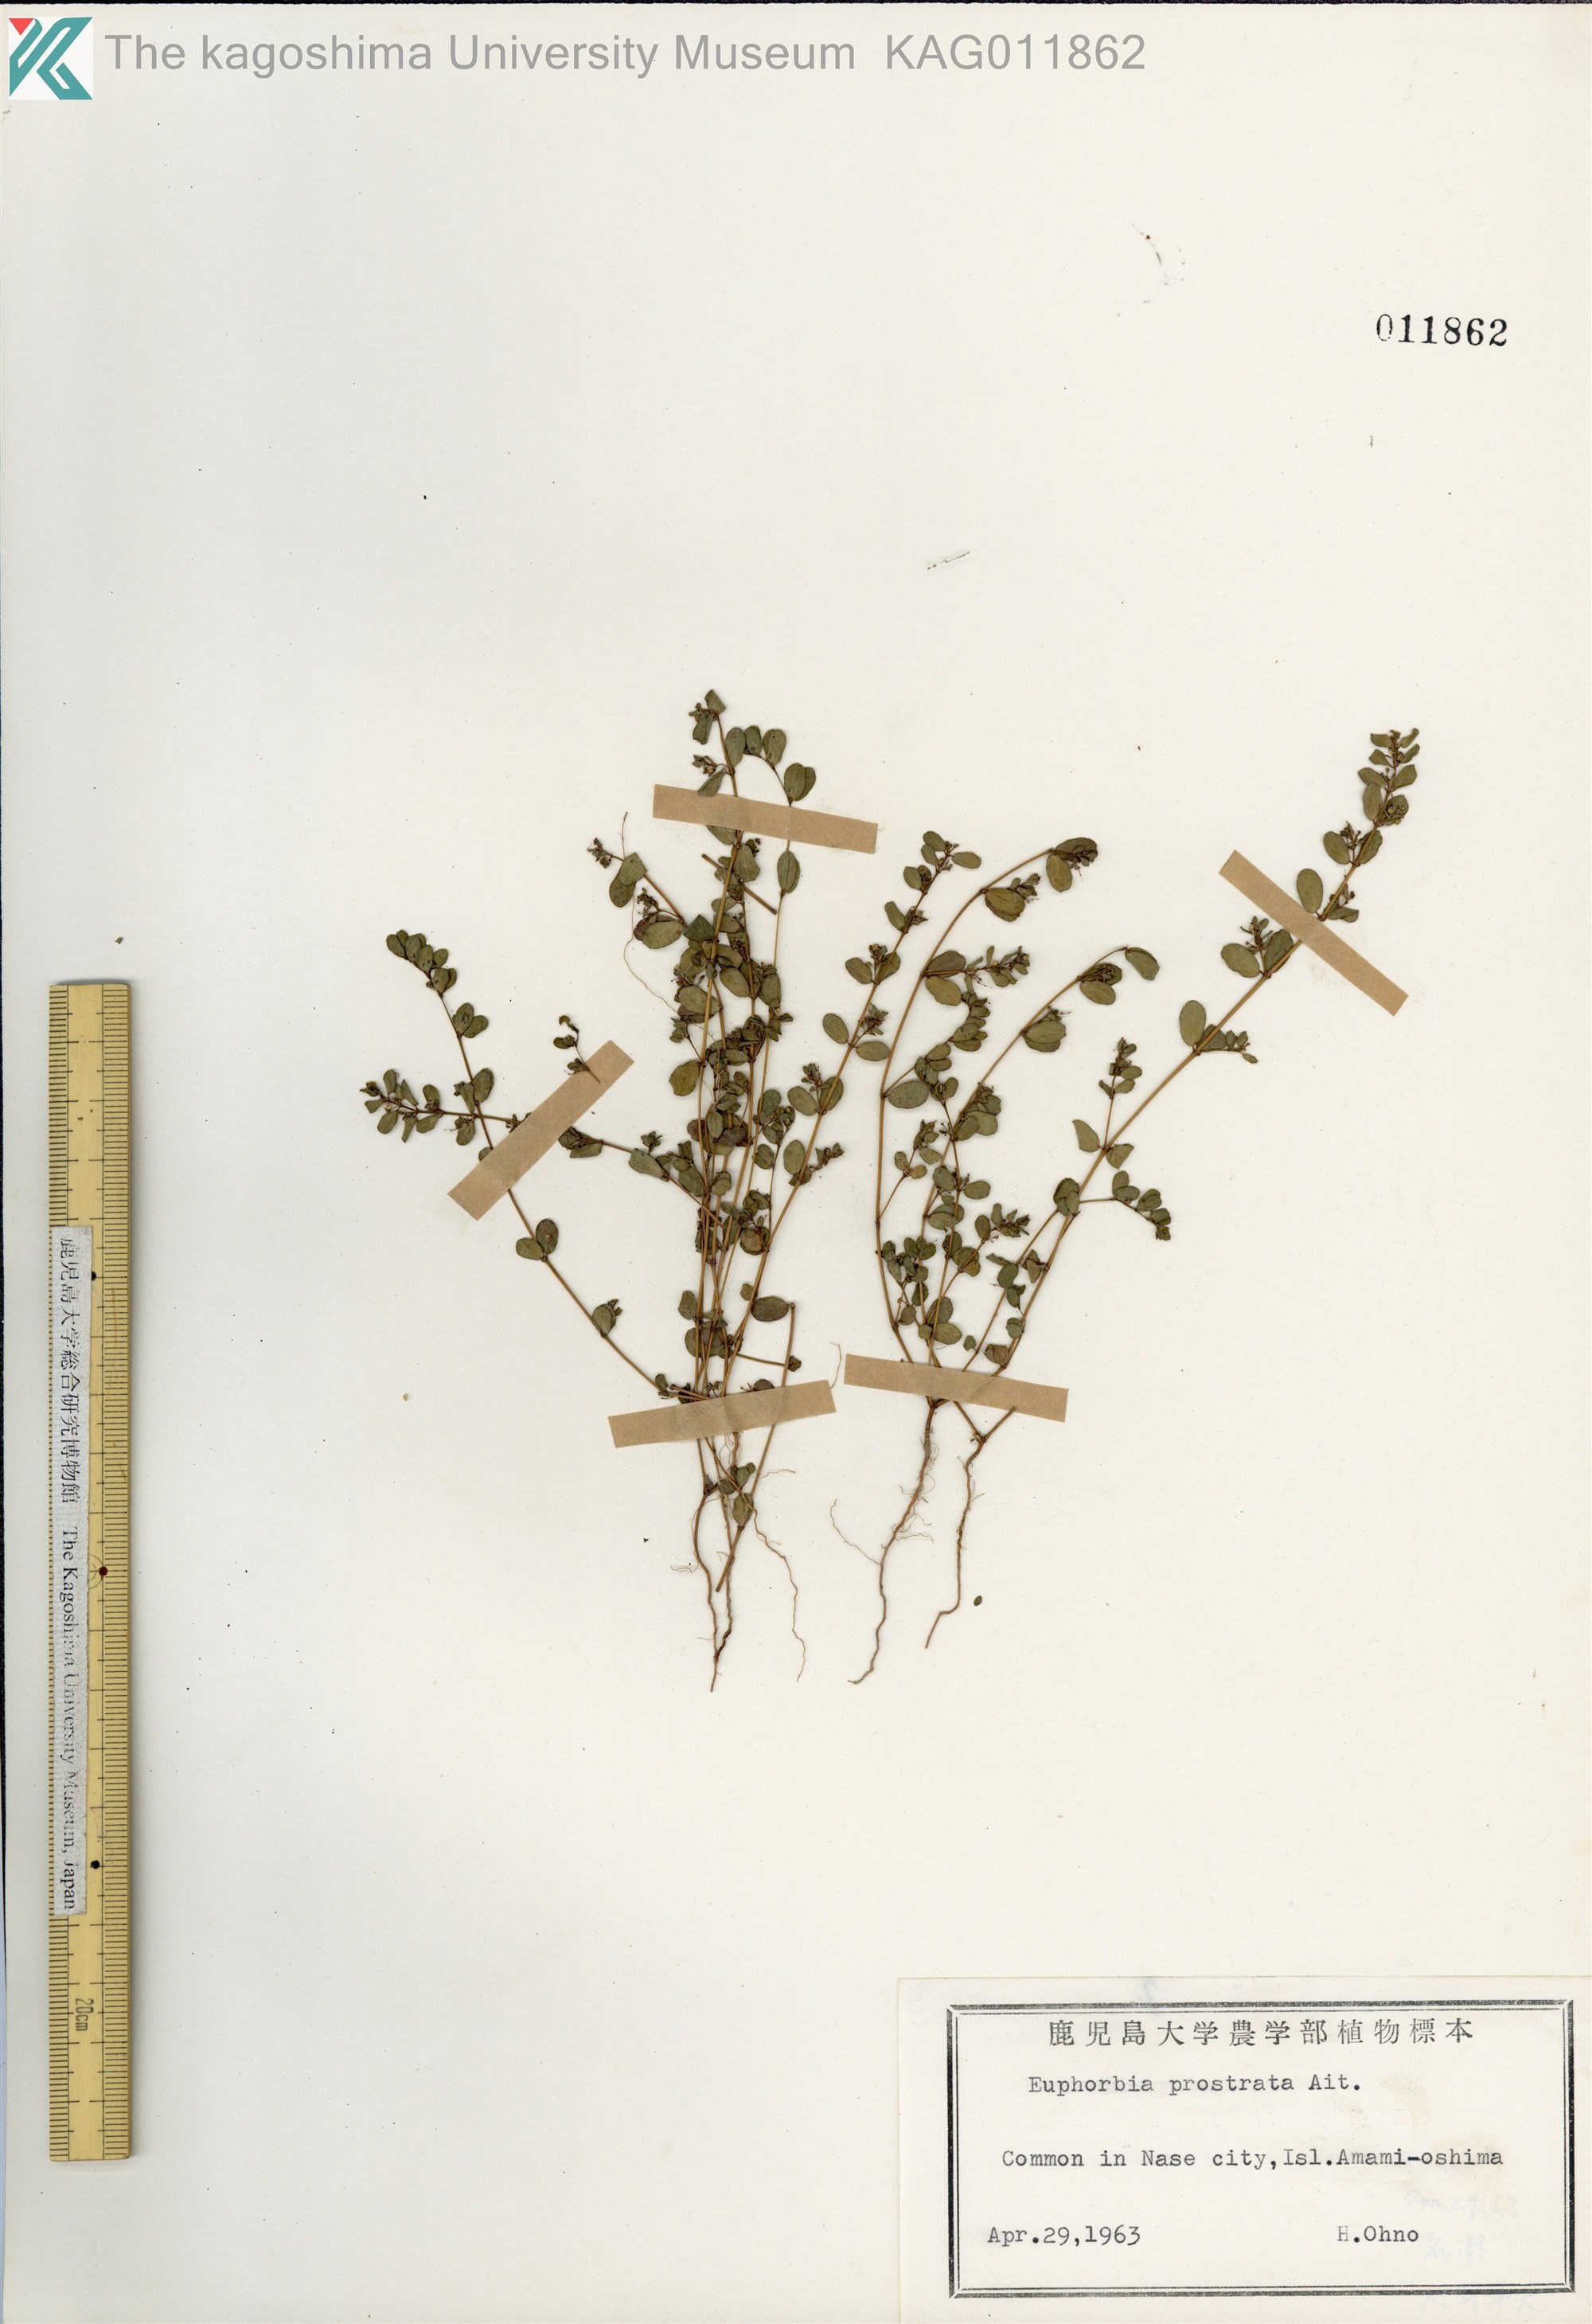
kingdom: Plantae
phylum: Tracheophyta
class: Magnoliopsida
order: Malpighiales
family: Euphorbiaceae
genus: Euphorbia
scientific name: Euphorbia prostrata
